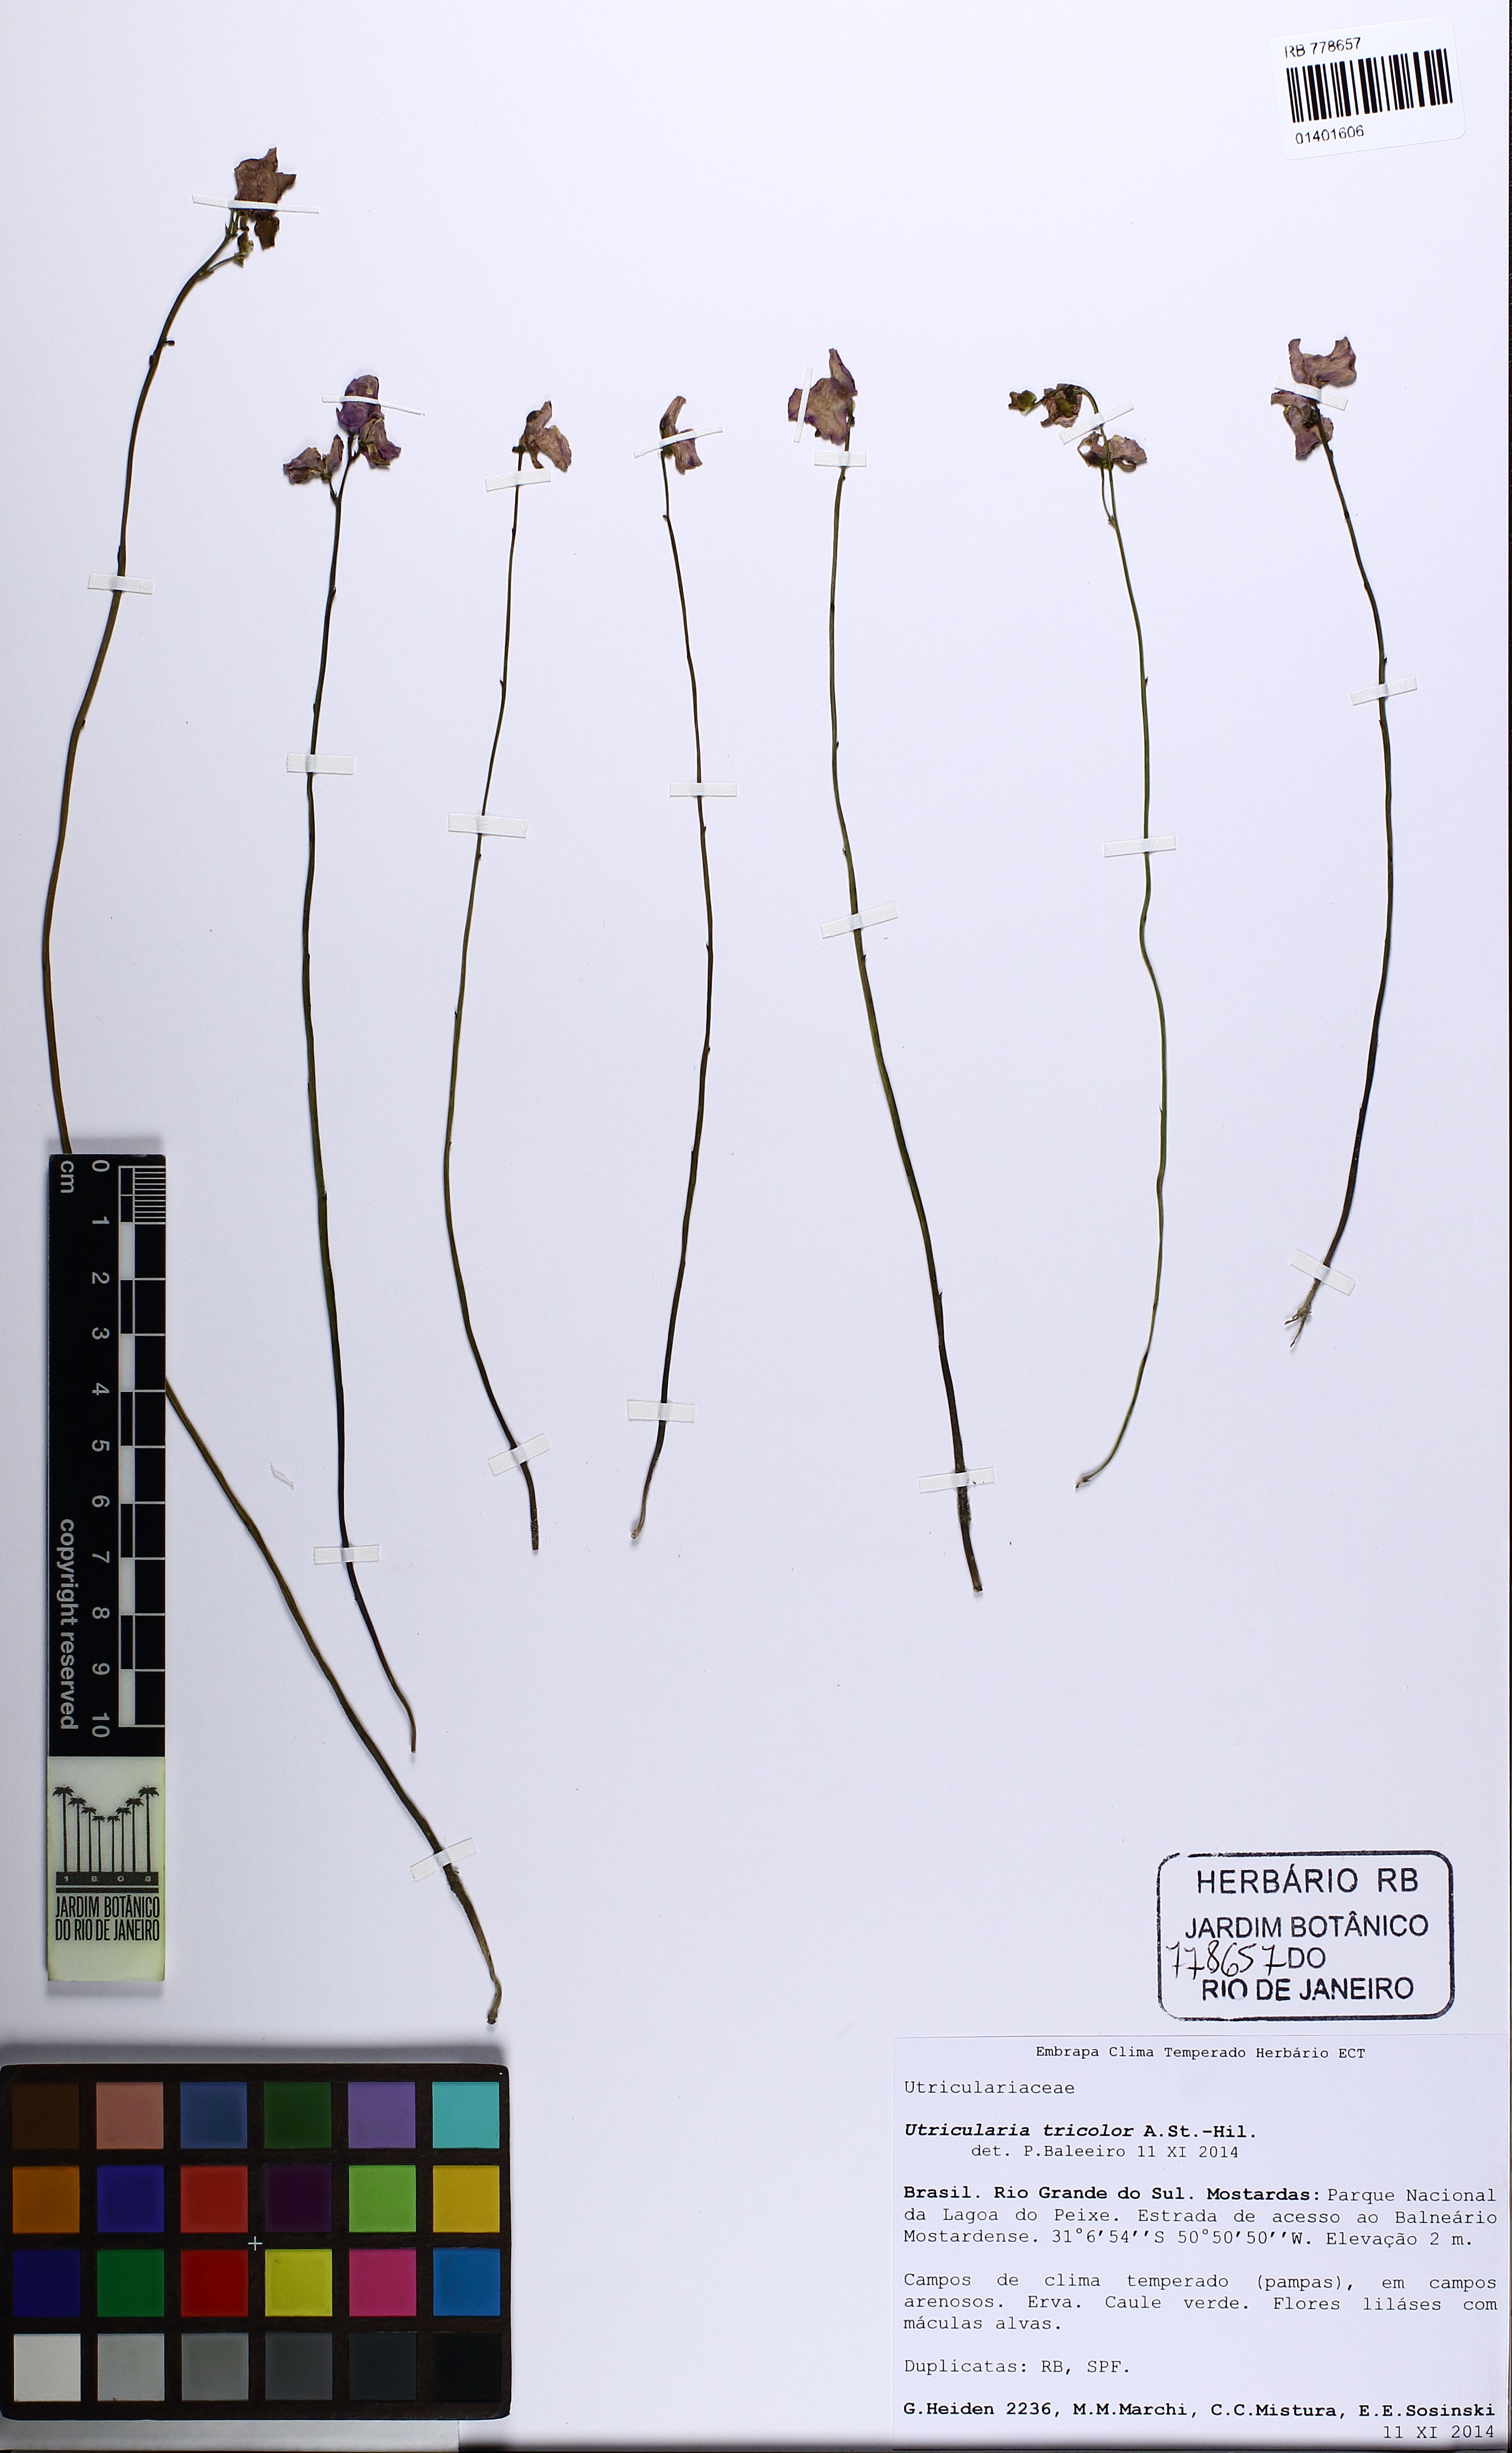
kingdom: Plantae
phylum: Tracheophyta
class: Magnoliopsida
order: Lamiales
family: Lentibulariaceae
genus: Utricularia
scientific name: Utricularia tricolor
